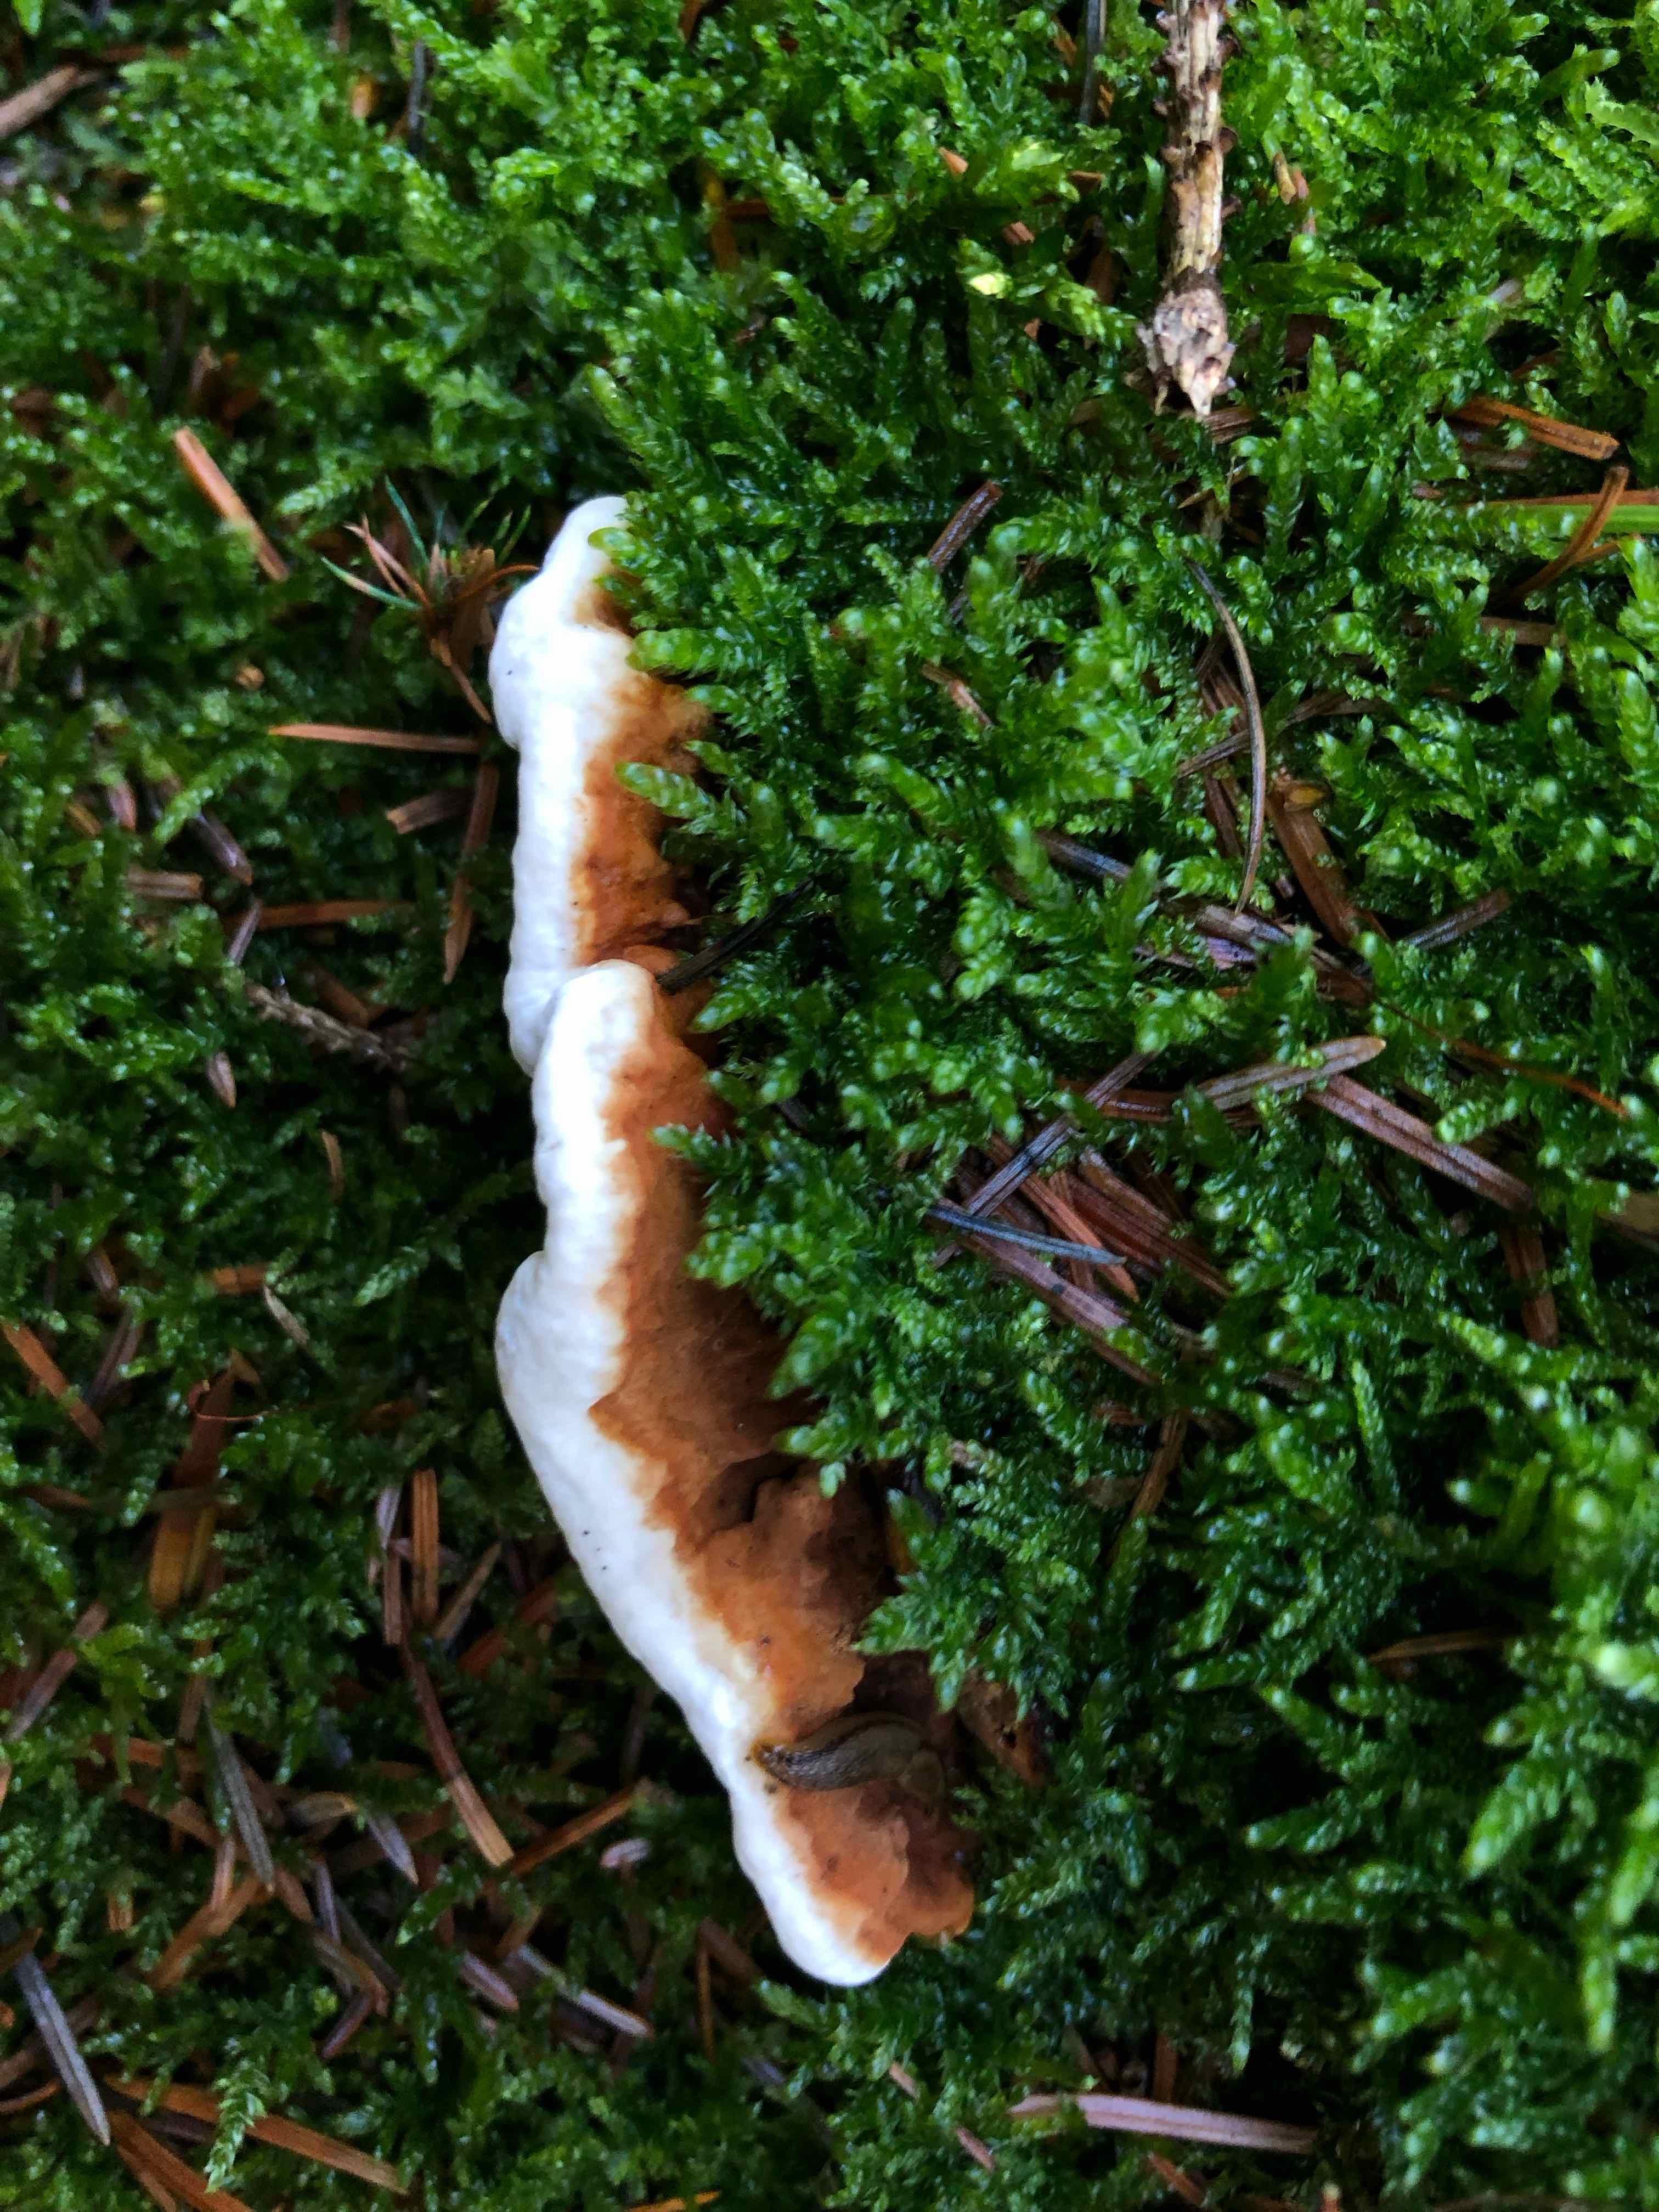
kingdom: Fungi
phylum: Basidiomycota
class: Agaricomycetes
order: Russulales
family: Bondarzewiaceae
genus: Heterobasidion
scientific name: Heterobasidion annosum
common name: almindelig rodfordærver
